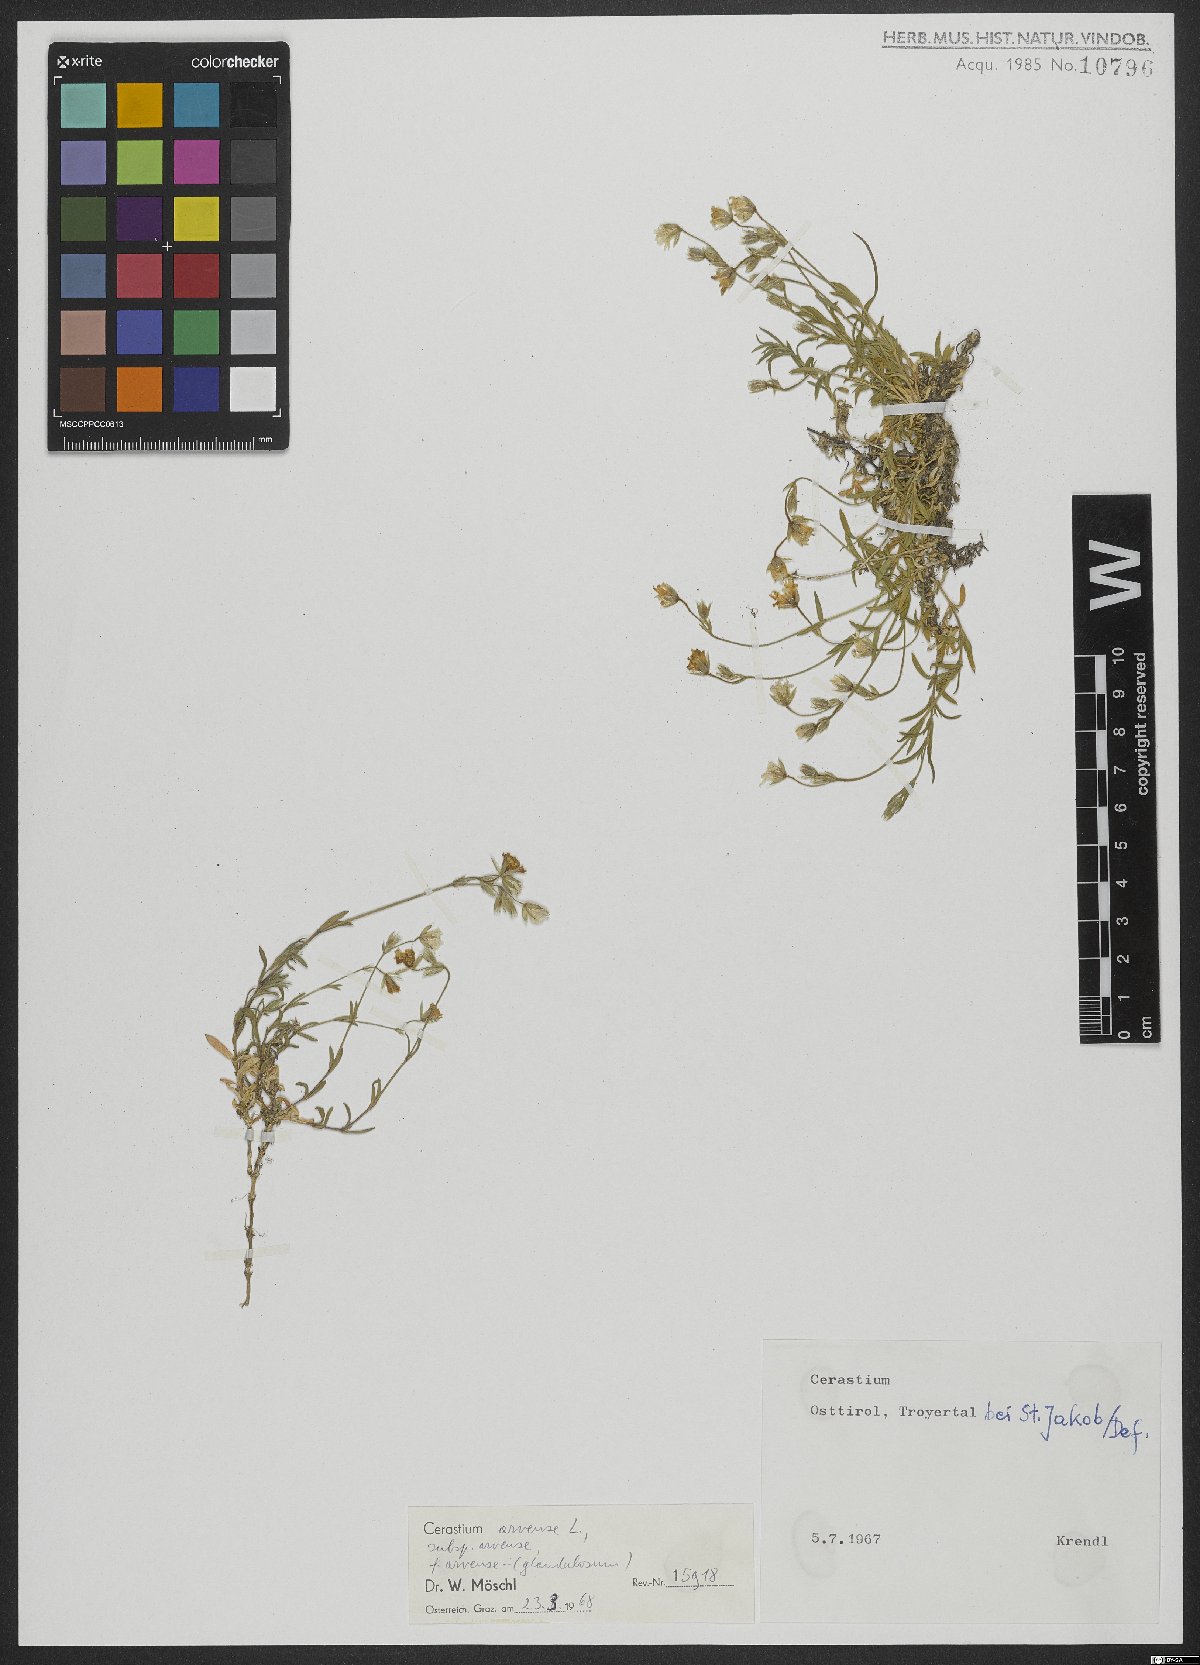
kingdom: Plantae
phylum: Tracheophyta
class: Magnoliopsida
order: Caryophyllales
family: Caryophyllaceae
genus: Cerastium
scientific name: Cerastium arvense
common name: Field mouse-ear
